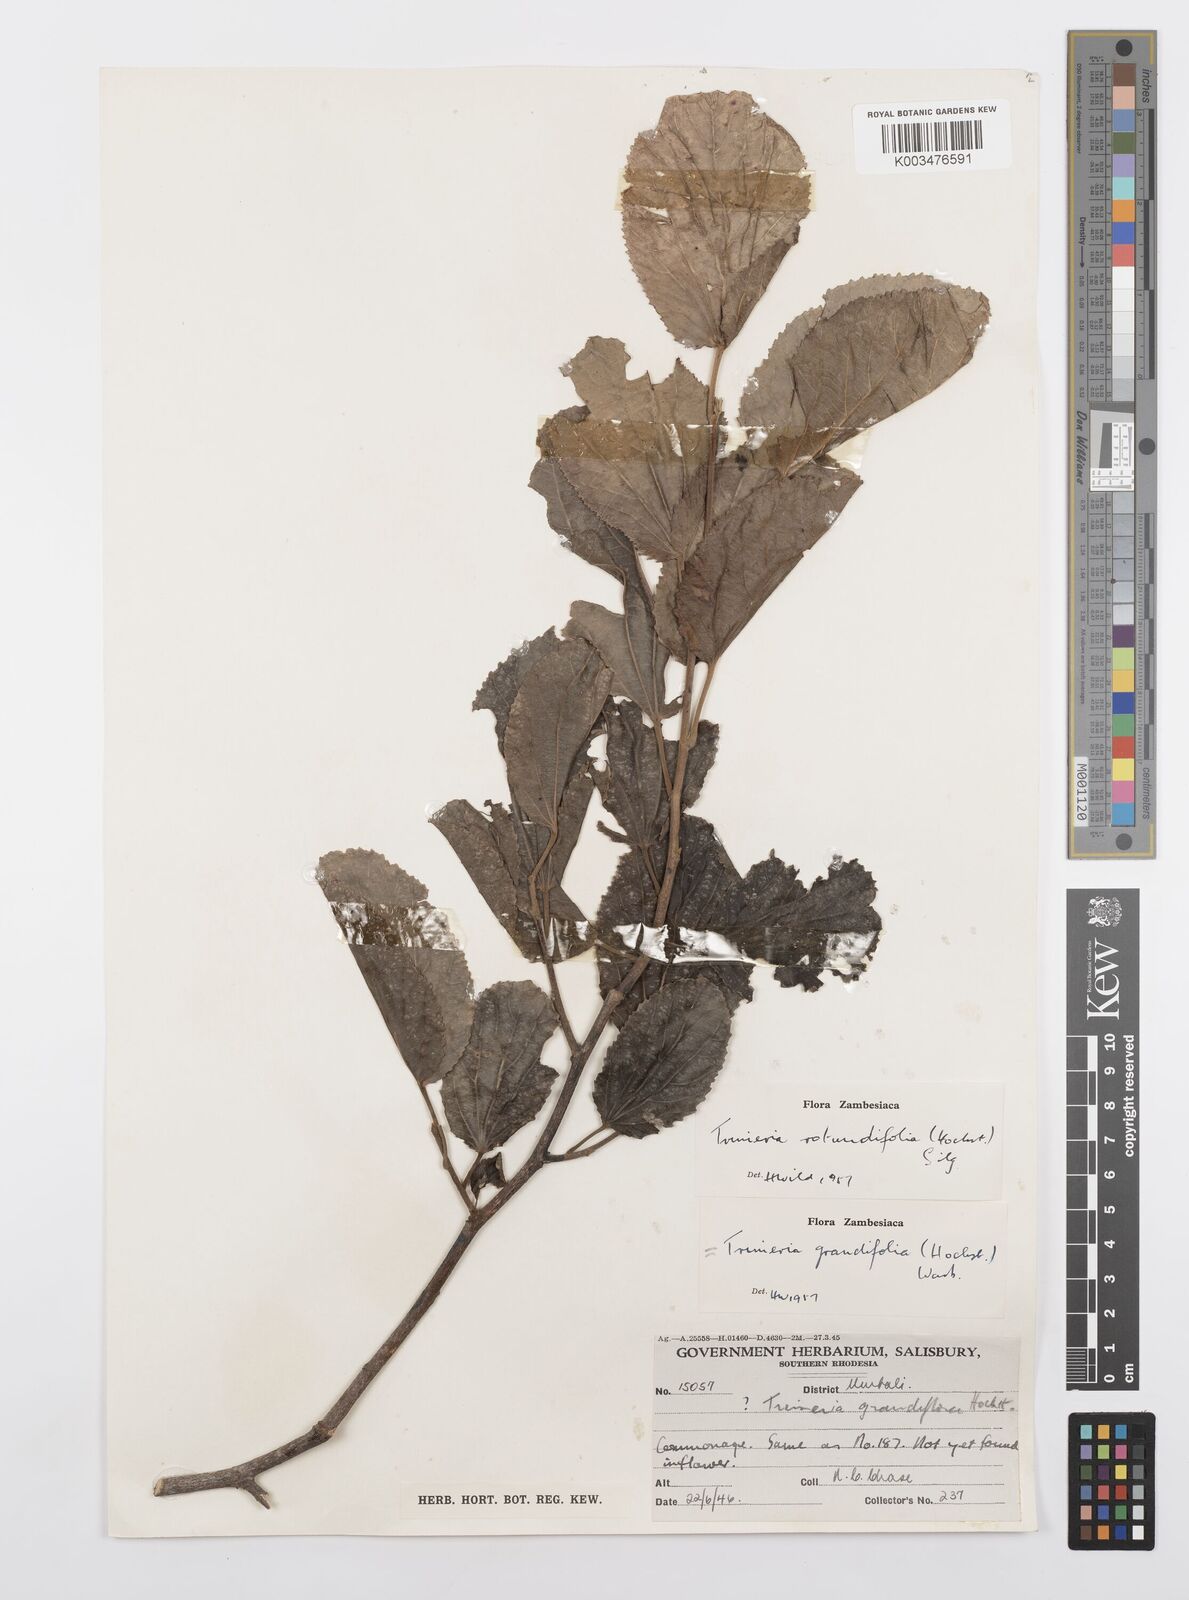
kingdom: Plantae
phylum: Tracheophyta
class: Magnoliopsida
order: Malpighiales
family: Salicaceae
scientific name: Salicaceae
